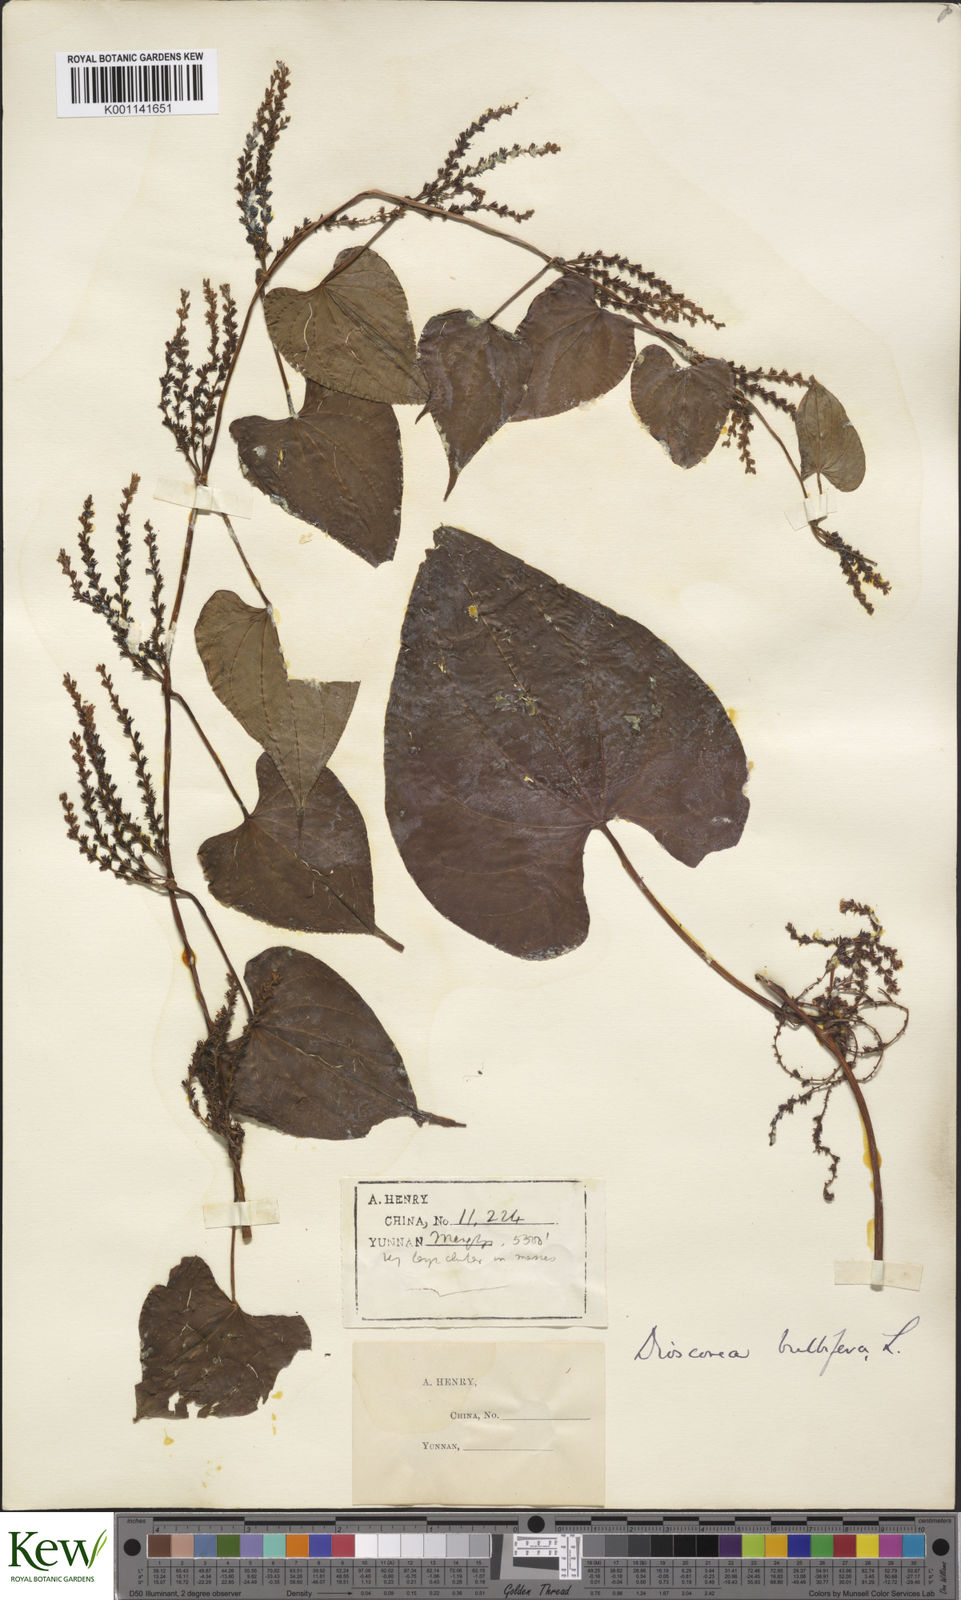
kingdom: Plantae
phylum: Tracheophyta
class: Liliopsida
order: Dioscoreales
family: Dioscoreaceae
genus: Dioscorea
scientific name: Dioscorea bulbifera
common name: Air yam
